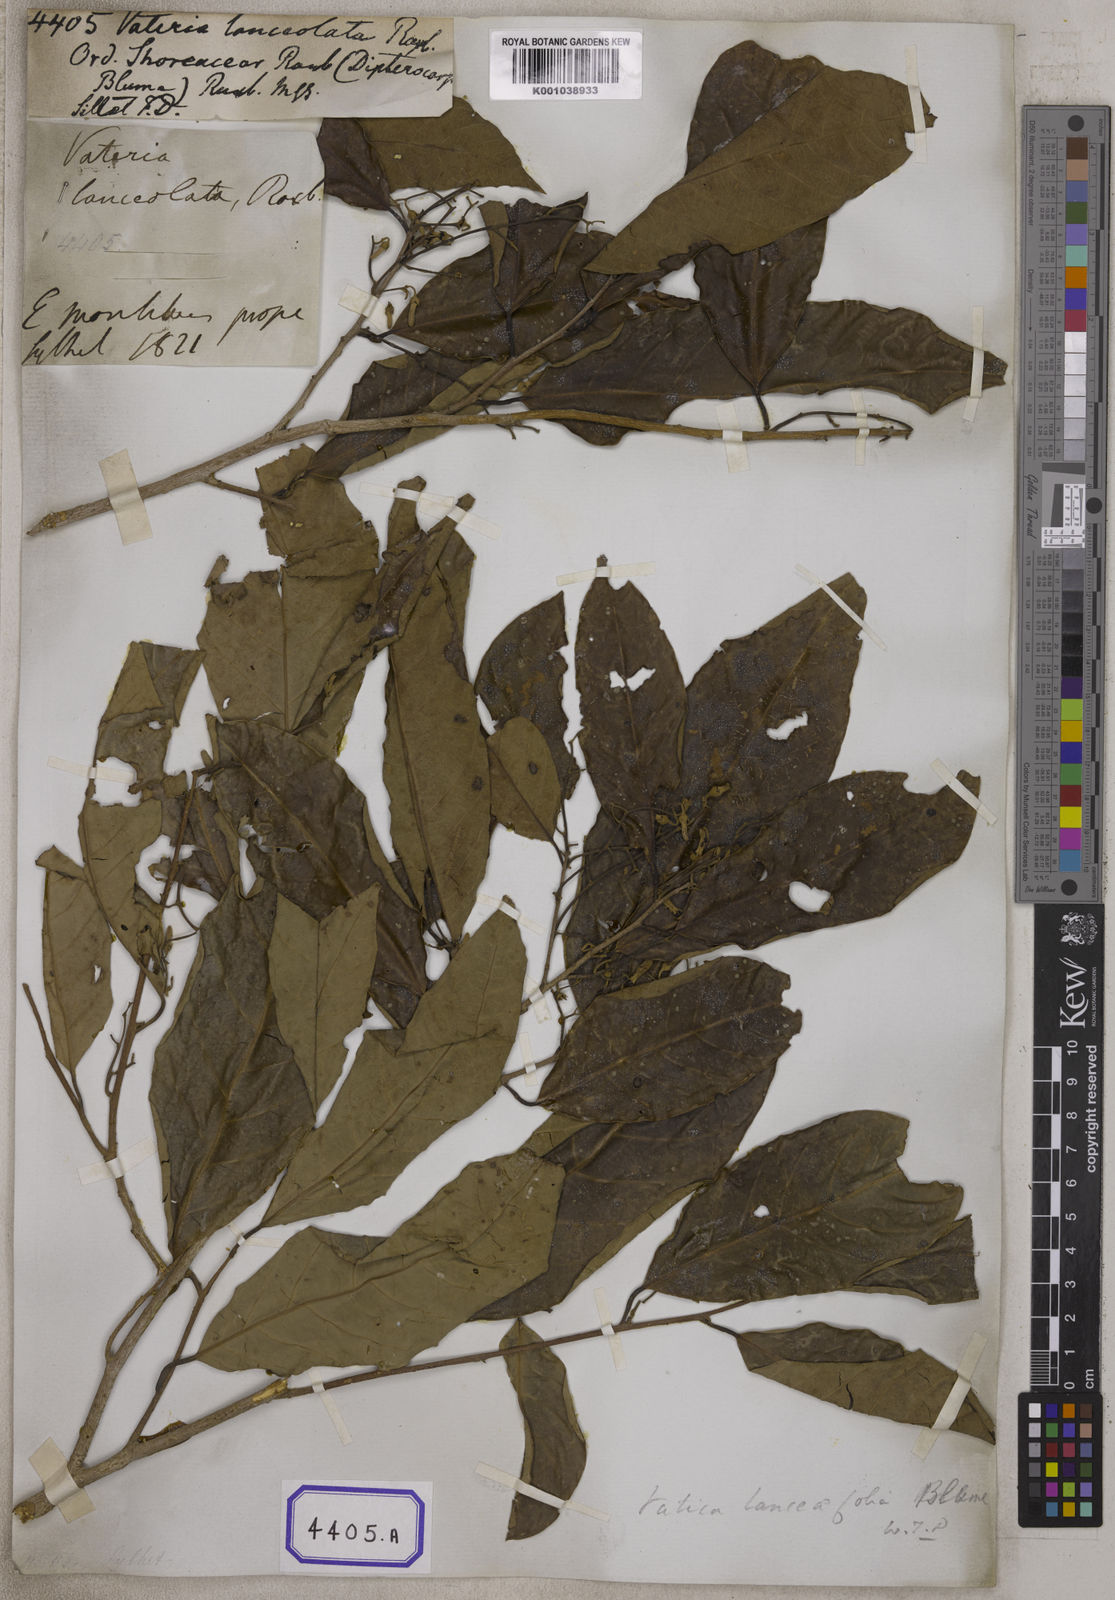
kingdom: Plantae
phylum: Tracheophyta
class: Magnoliopsida
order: Malvales
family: Dipterocarpaceae
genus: Vateria
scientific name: Vateria
